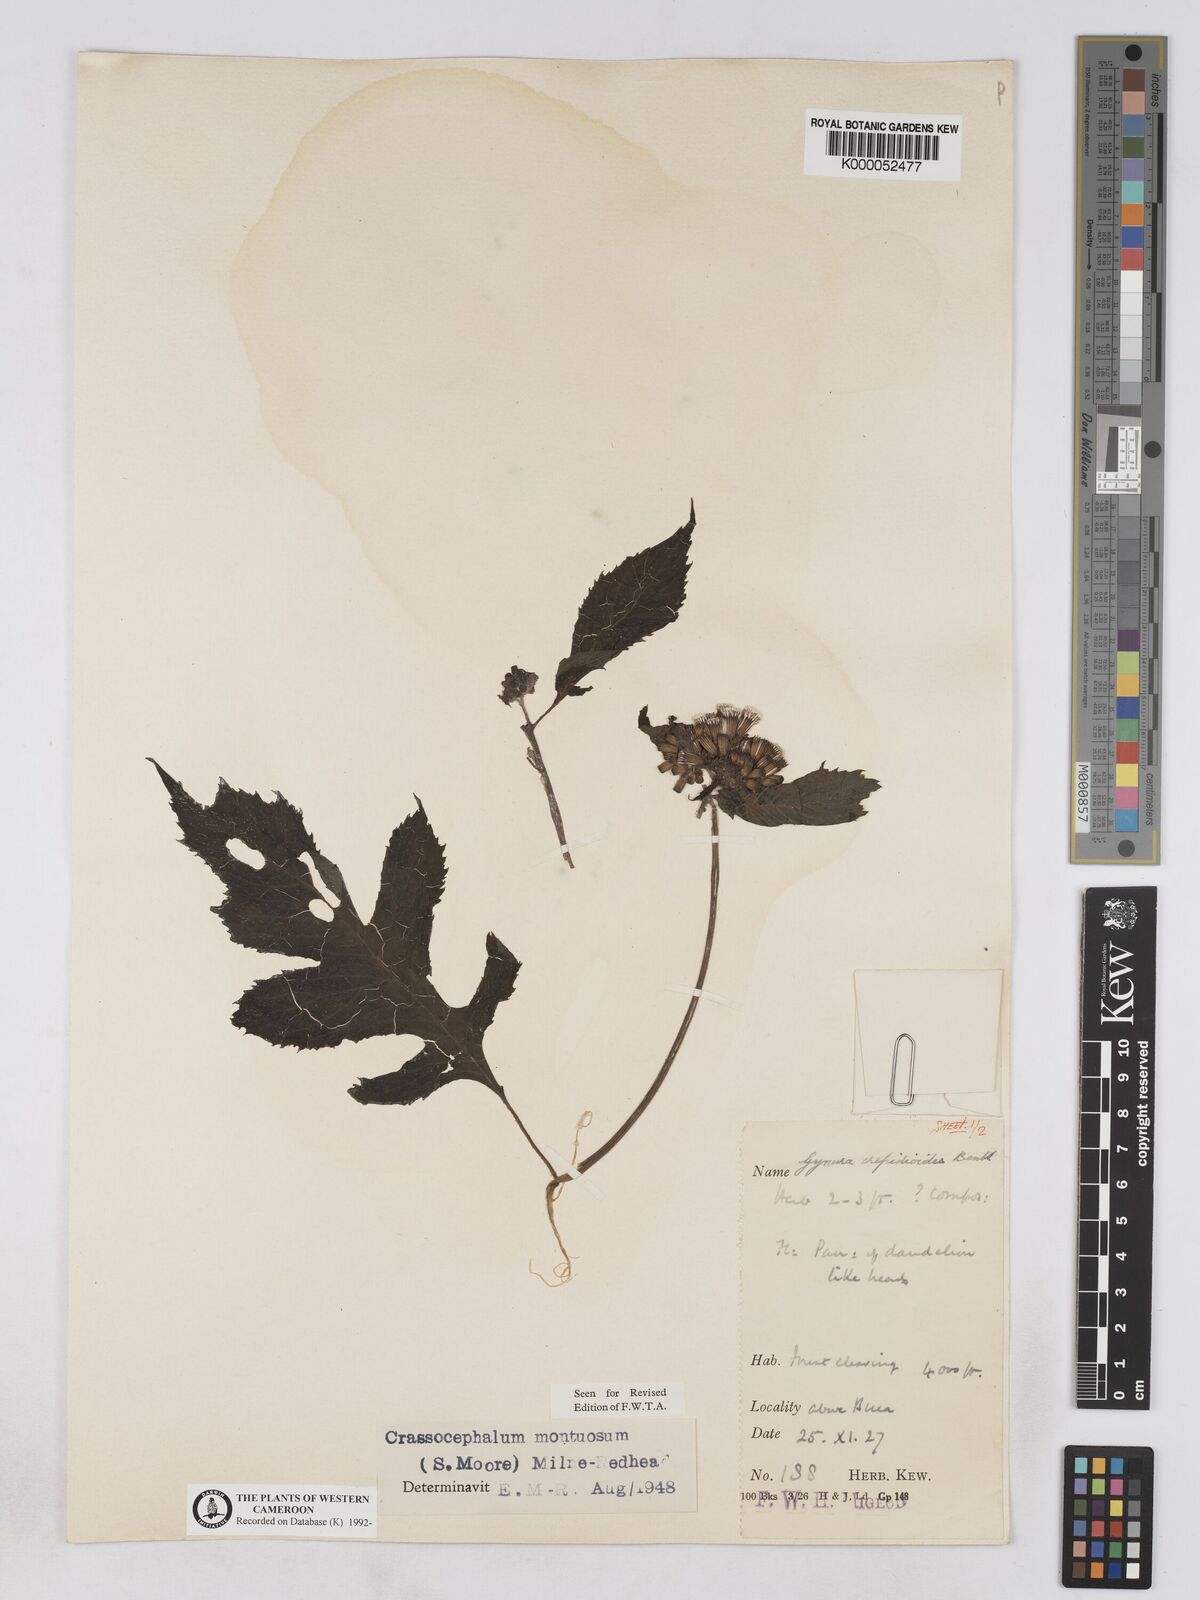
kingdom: Plantae
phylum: Tracheophyta
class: Magnoliopsida
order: Asterales
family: Asteraceae
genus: Crassocephalum
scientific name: Crassocephalum montuosum
